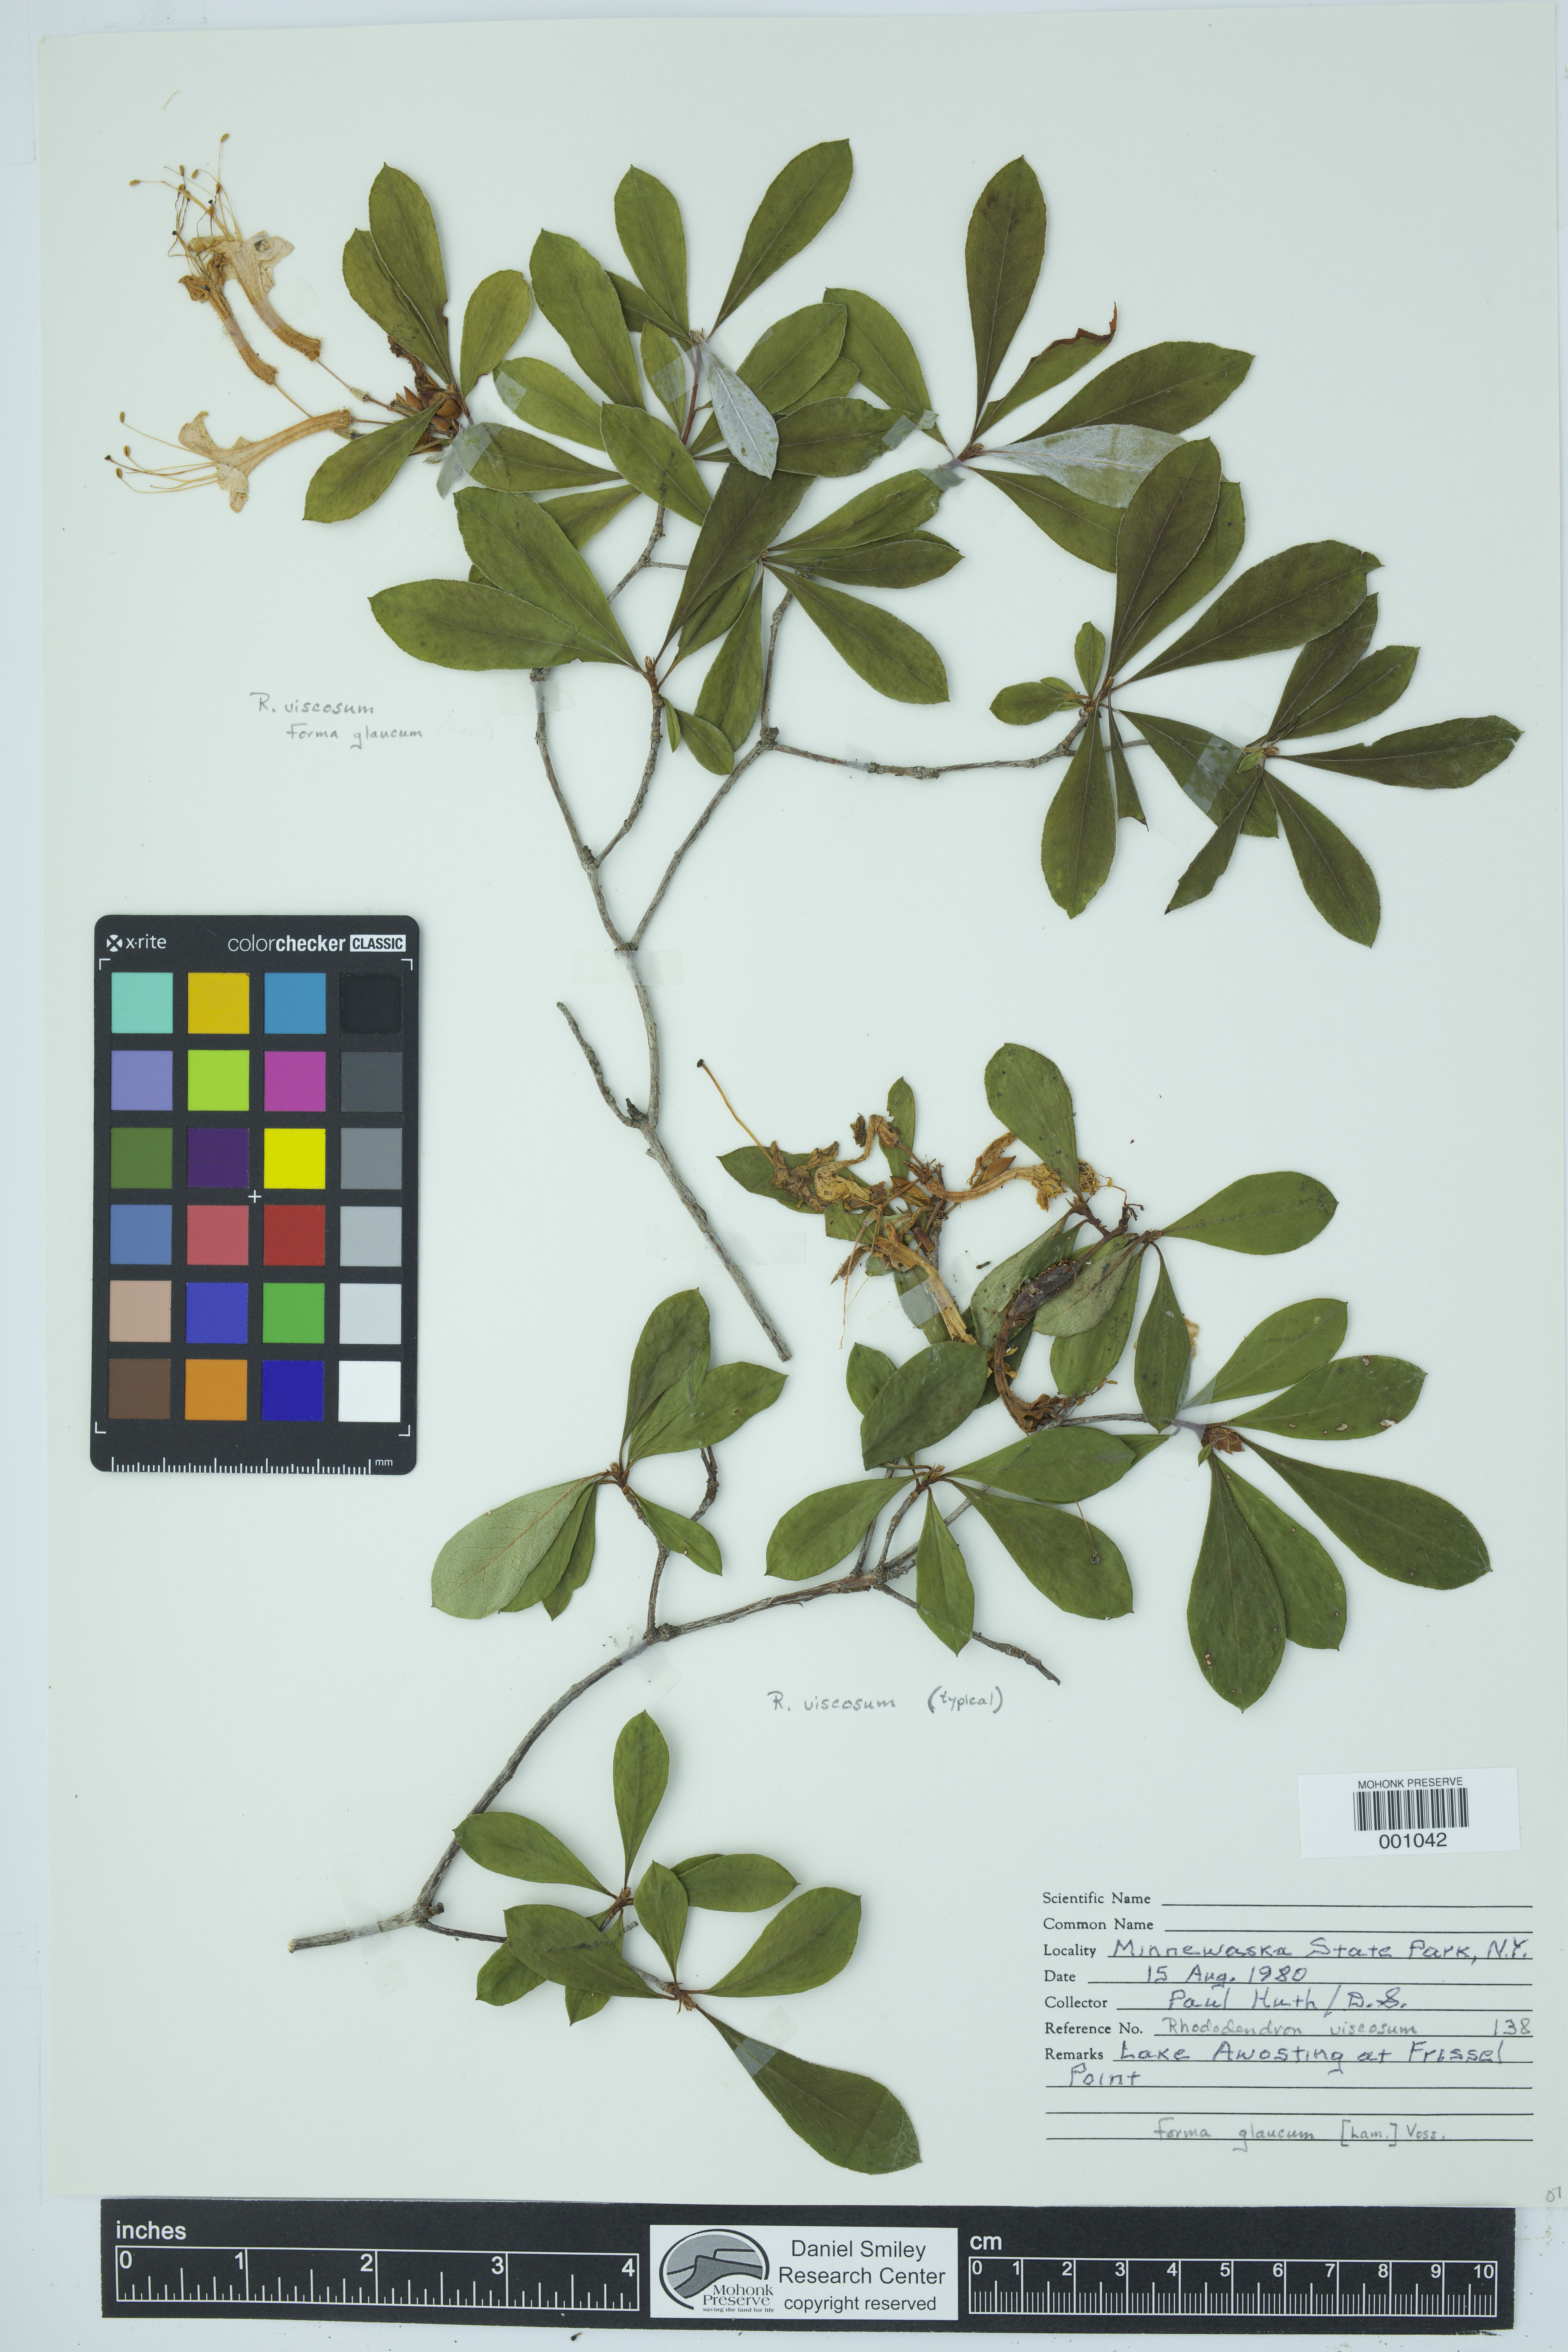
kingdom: Plantae
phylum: Tracheophyta
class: Magnoliopsida
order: Ericales
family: Ericaceae
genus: Rhododendron
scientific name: Rhododendron viscosum
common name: Clammy azalea
